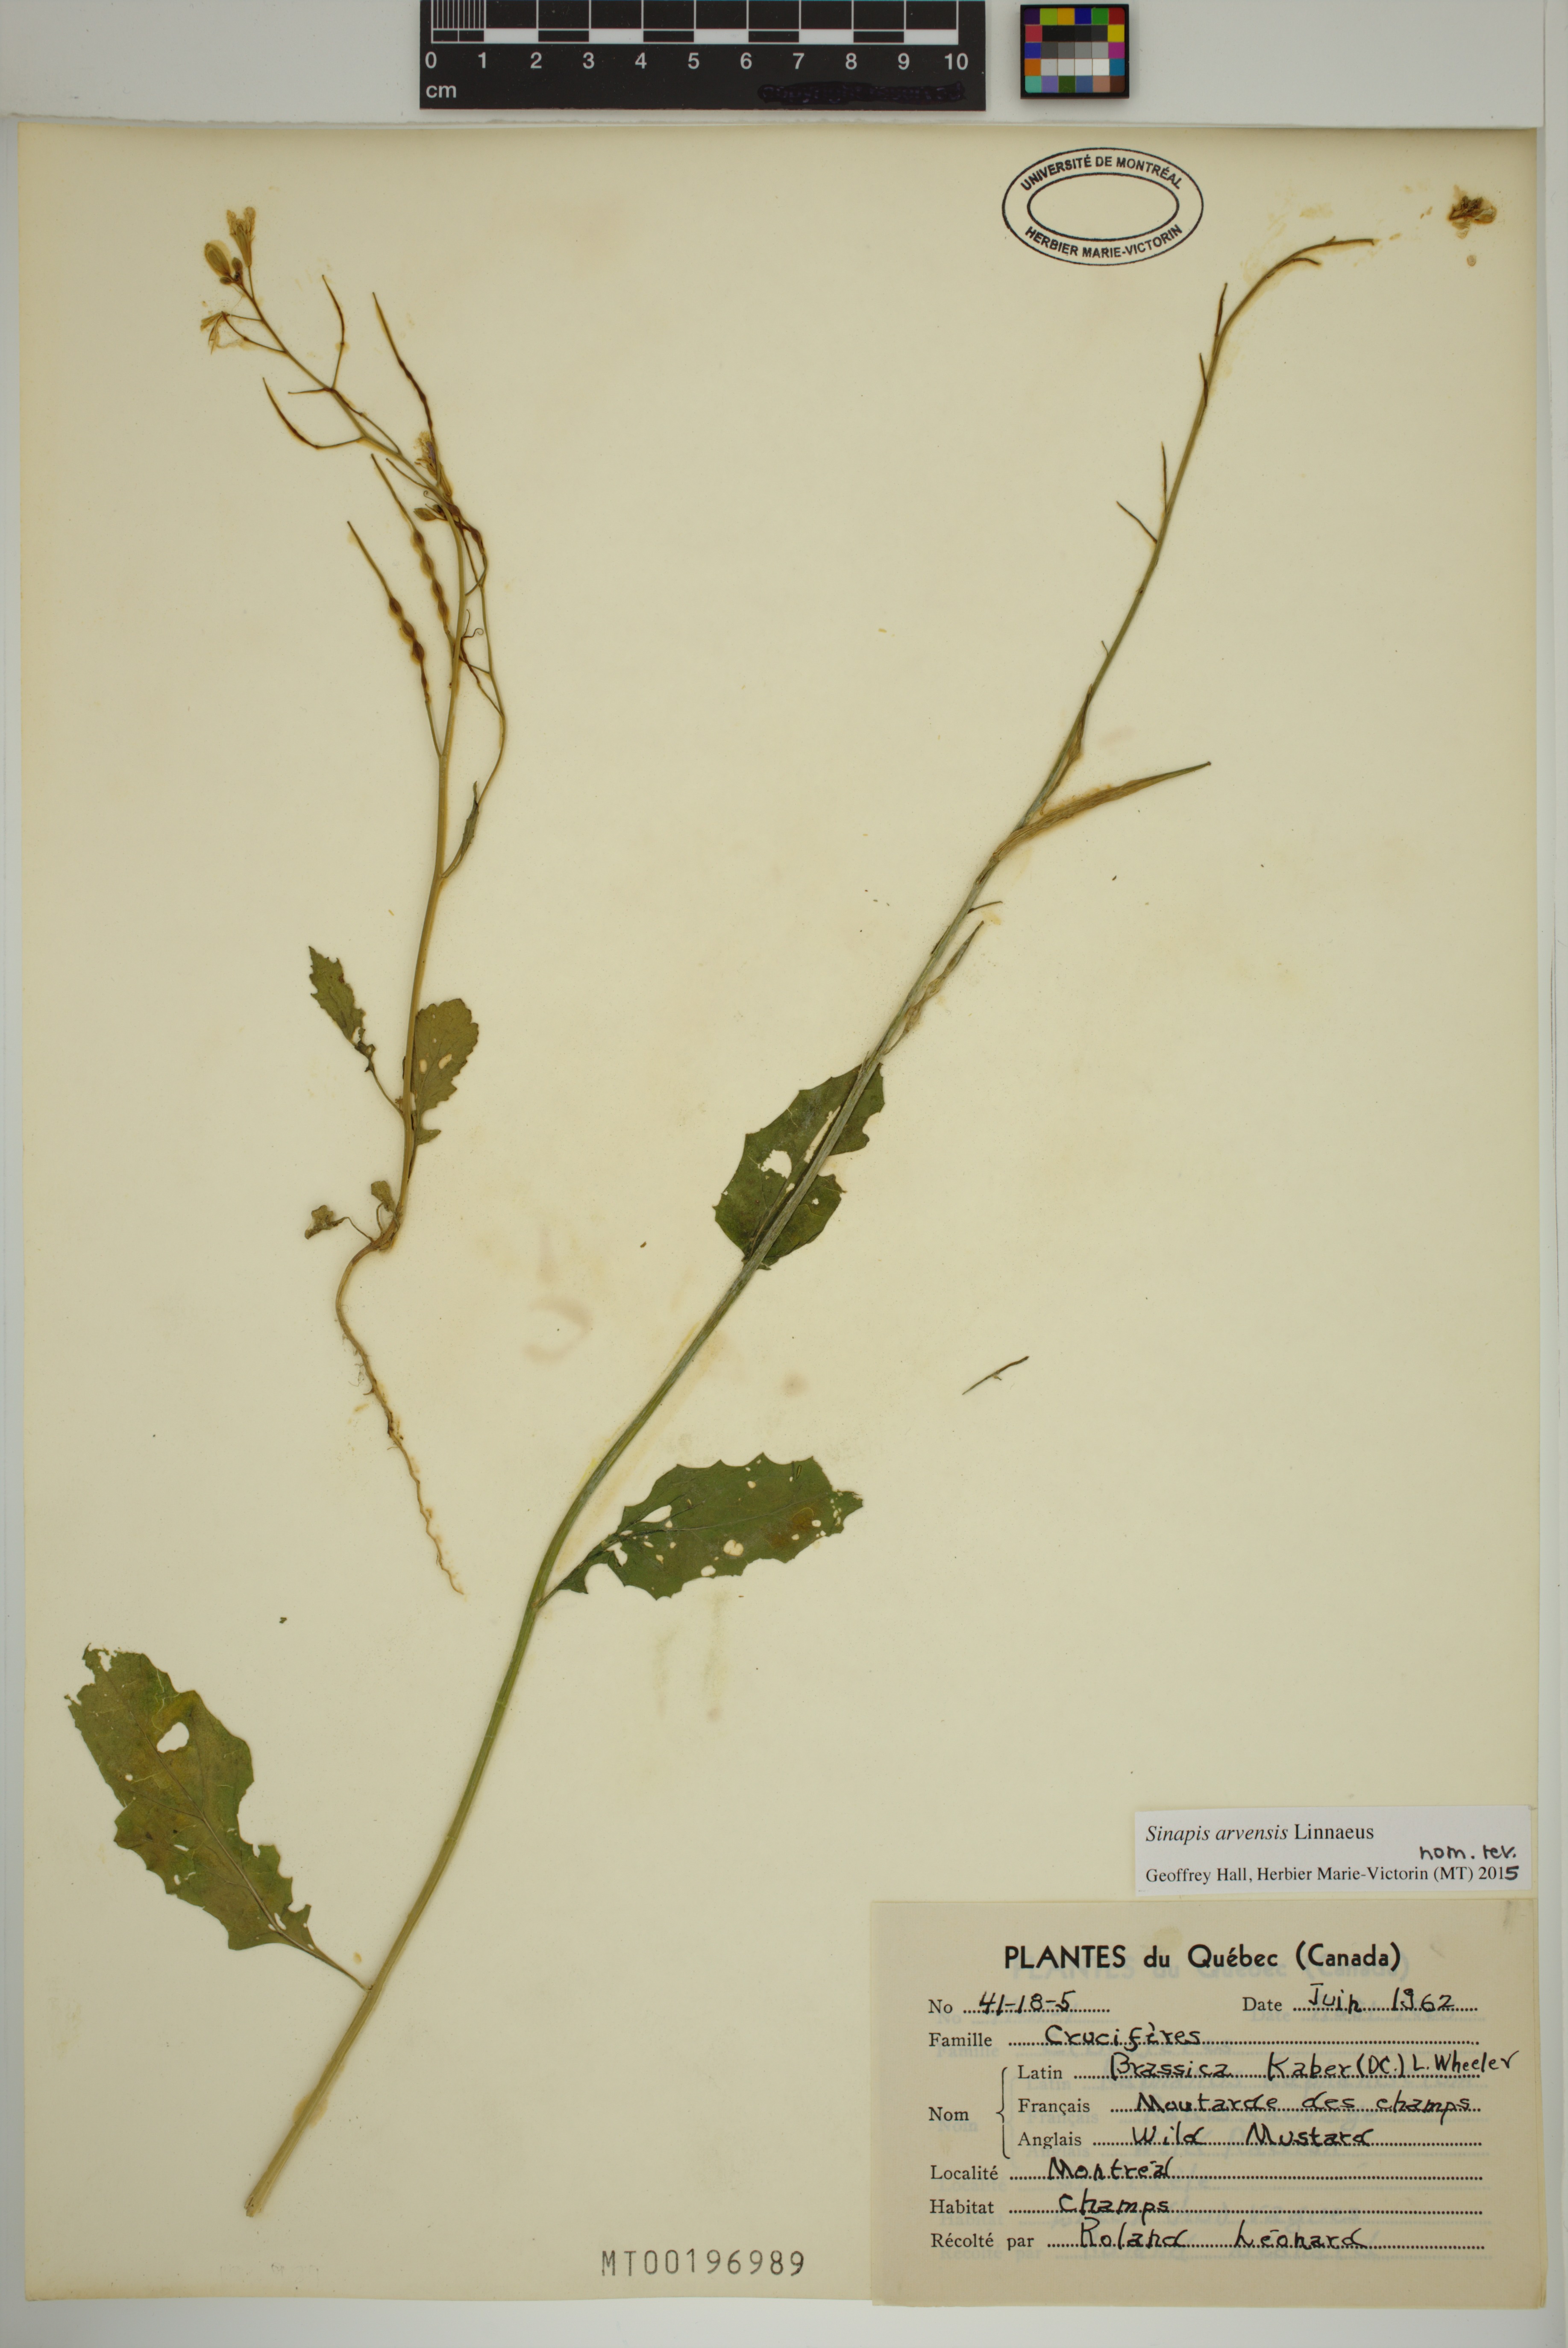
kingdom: Plantae
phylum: Tracheophyta
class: Magnoliopsida
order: Brassicales
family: Brassicaceae
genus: Sinapis
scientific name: Sinapis arvensis
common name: Charlock
